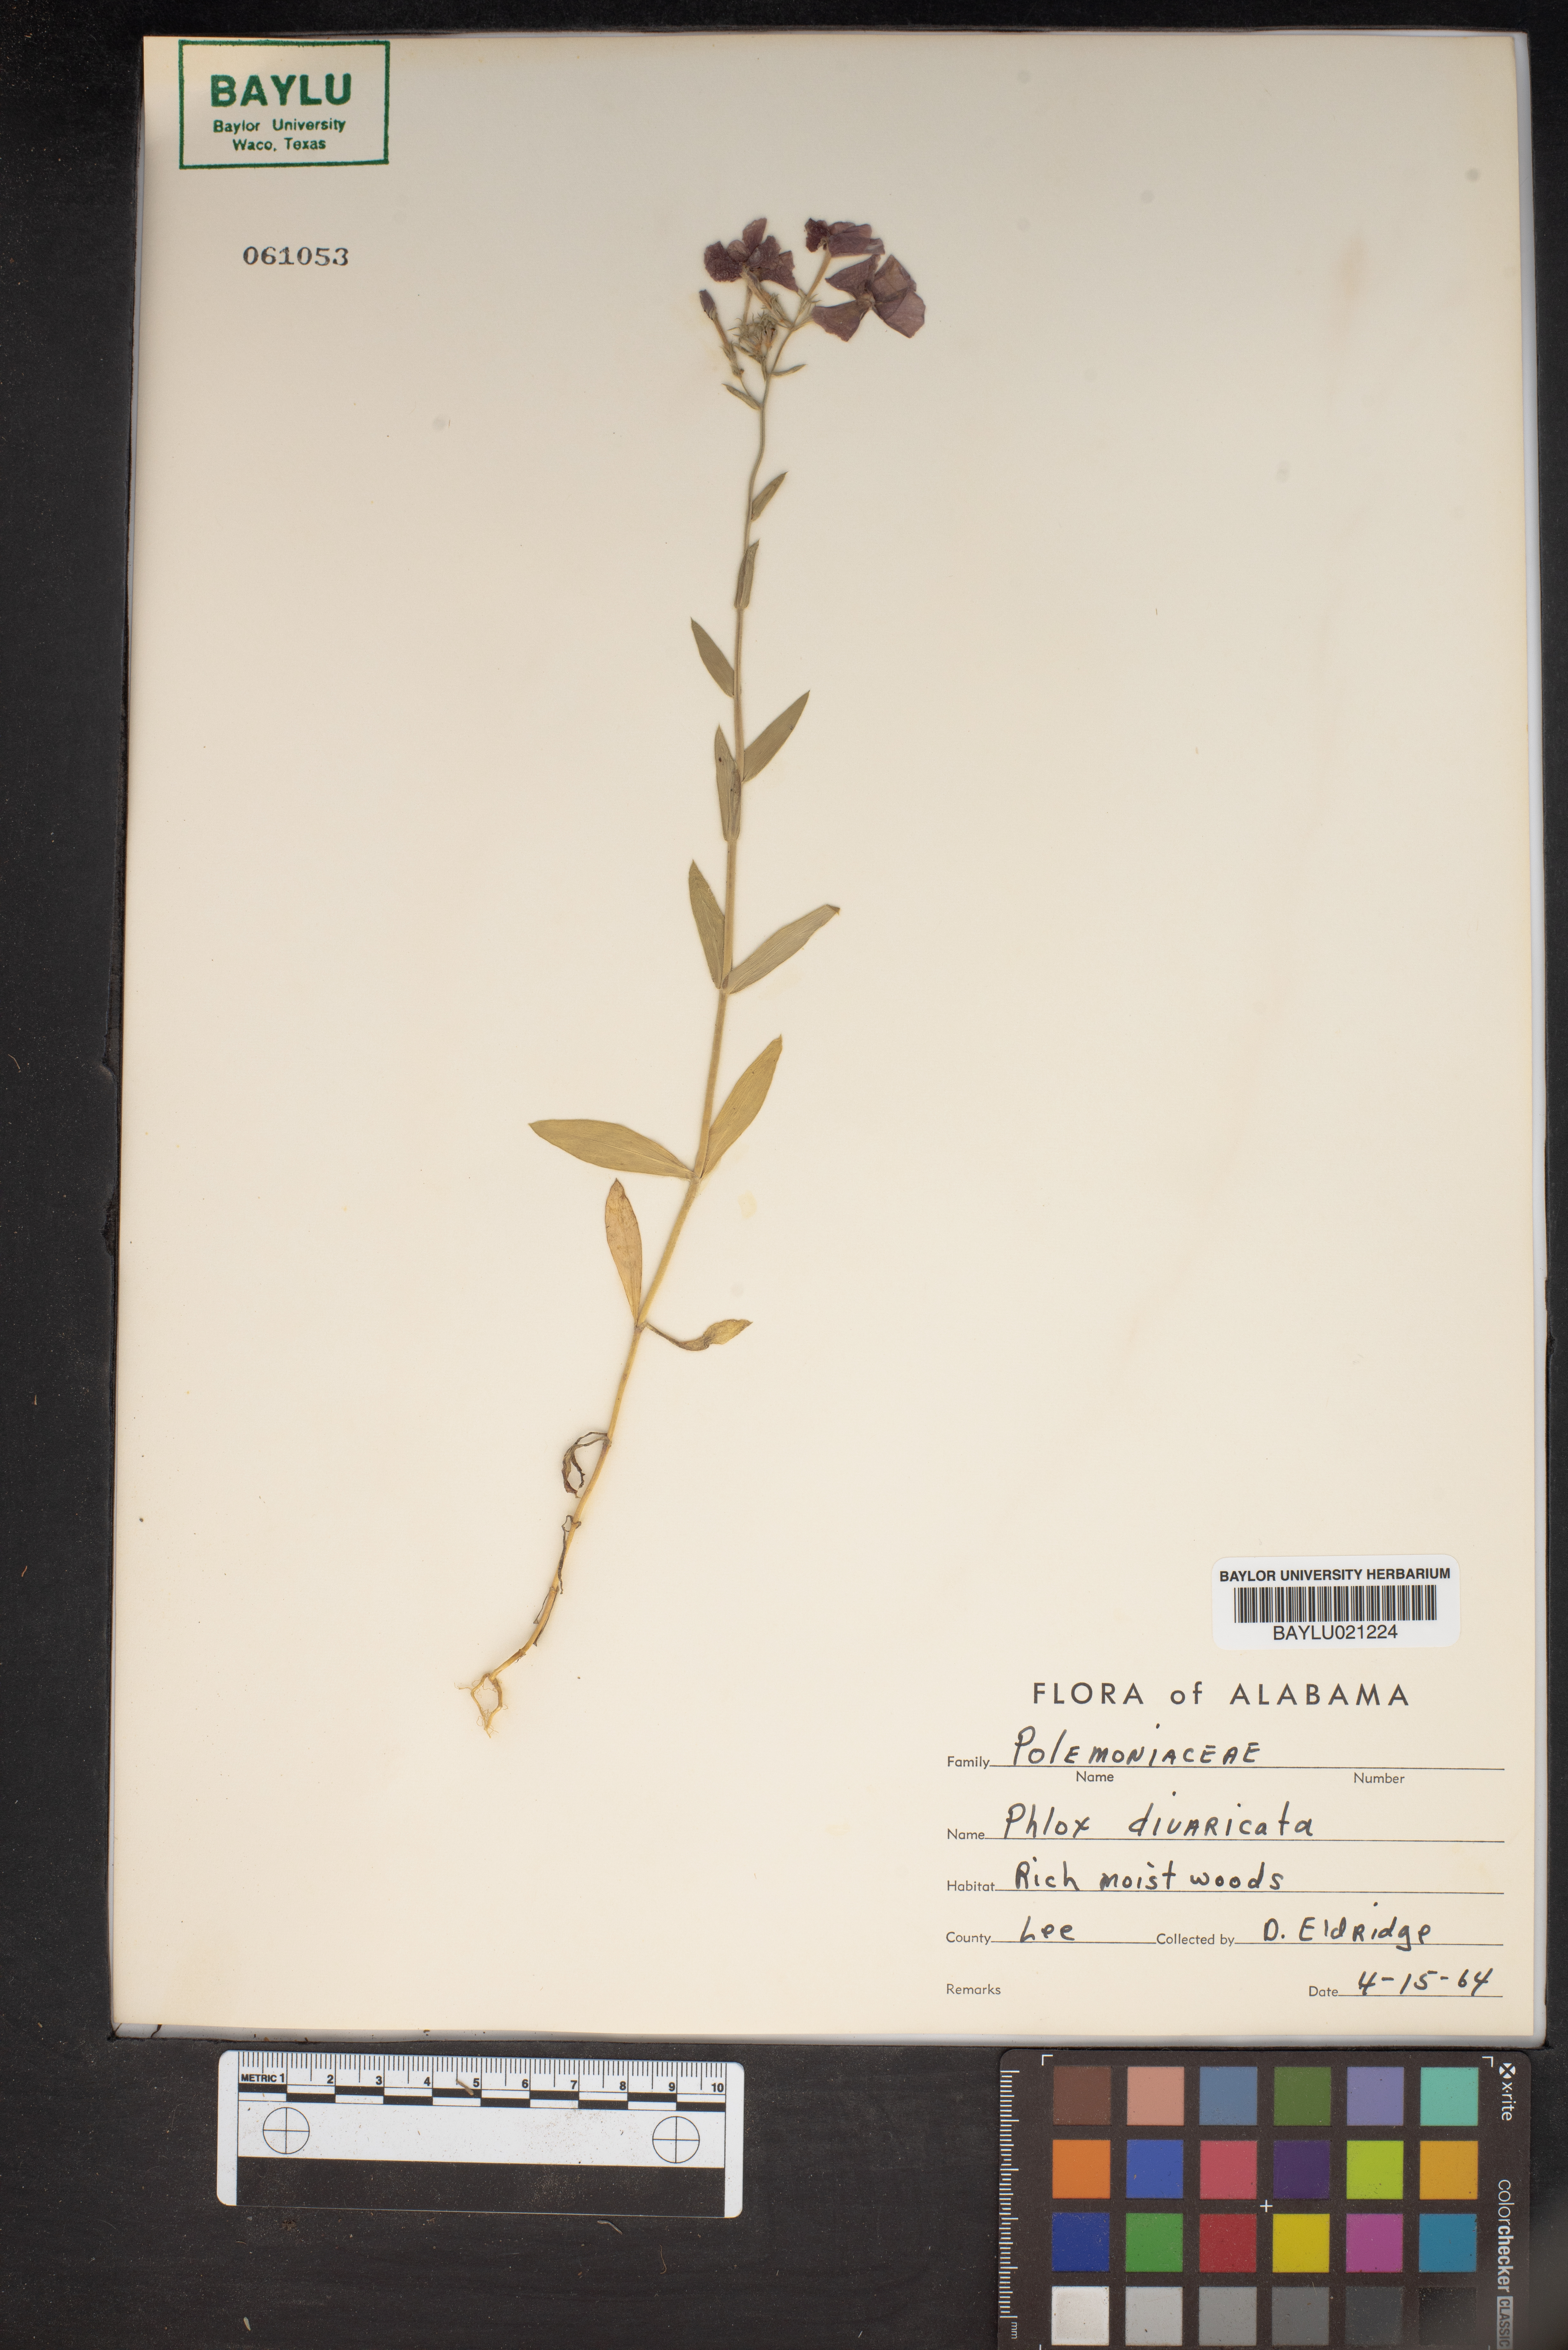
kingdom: Plantae
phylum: Tracheophyta
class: Magnoliopsida
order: Ericales
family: Polemoniaceae
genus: Phlox
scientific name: Phlox divaricata
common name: Blue phlox
